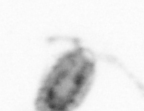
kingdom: Animalia
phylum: Arthropoda
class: Copepoda
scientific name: Copepoda
